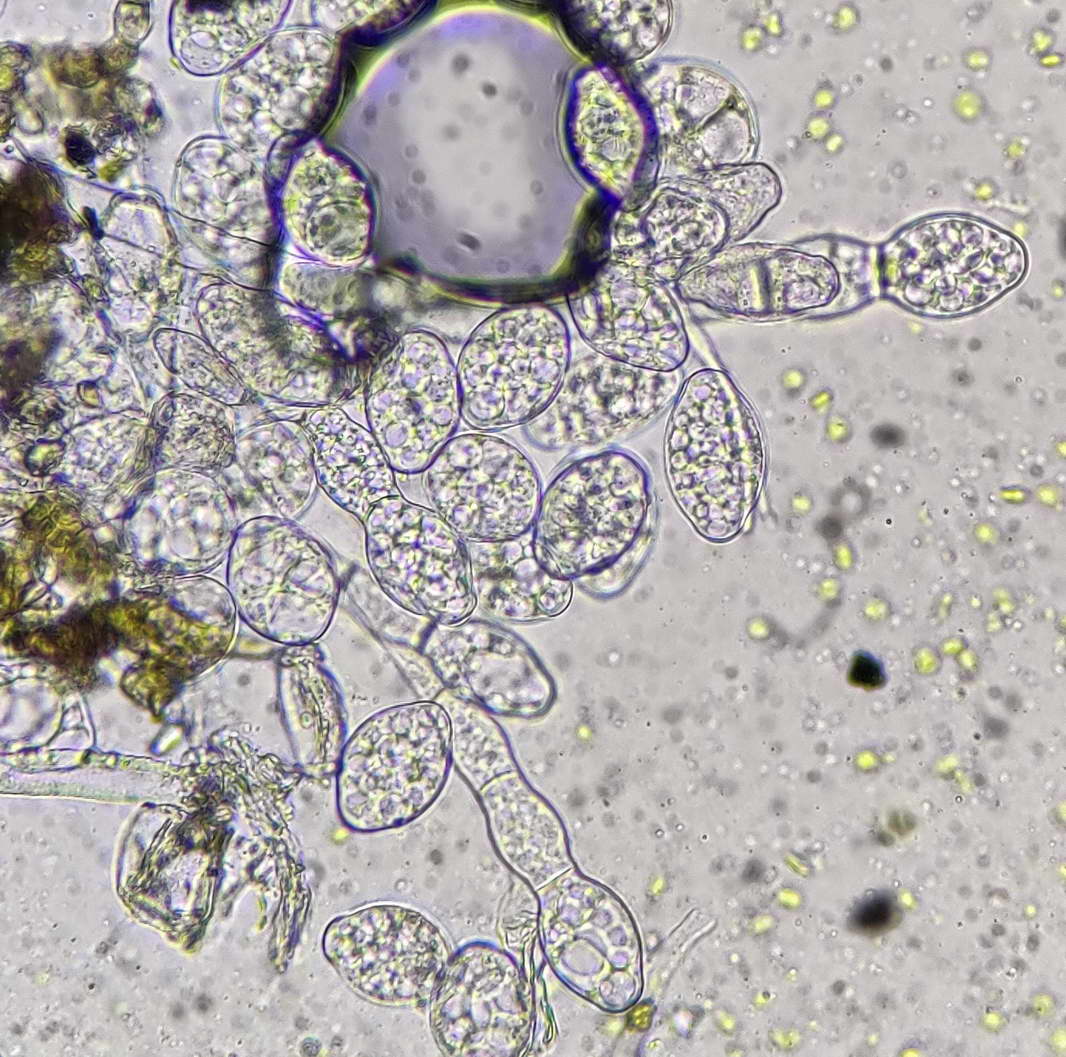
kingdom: Fungi
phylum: Ascomycota
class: Leotiomycetes
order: Helotiales
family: Erysiphaceae
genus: Golovinomyces
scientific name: Golovinomyces depressus
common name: Burdock mildew
